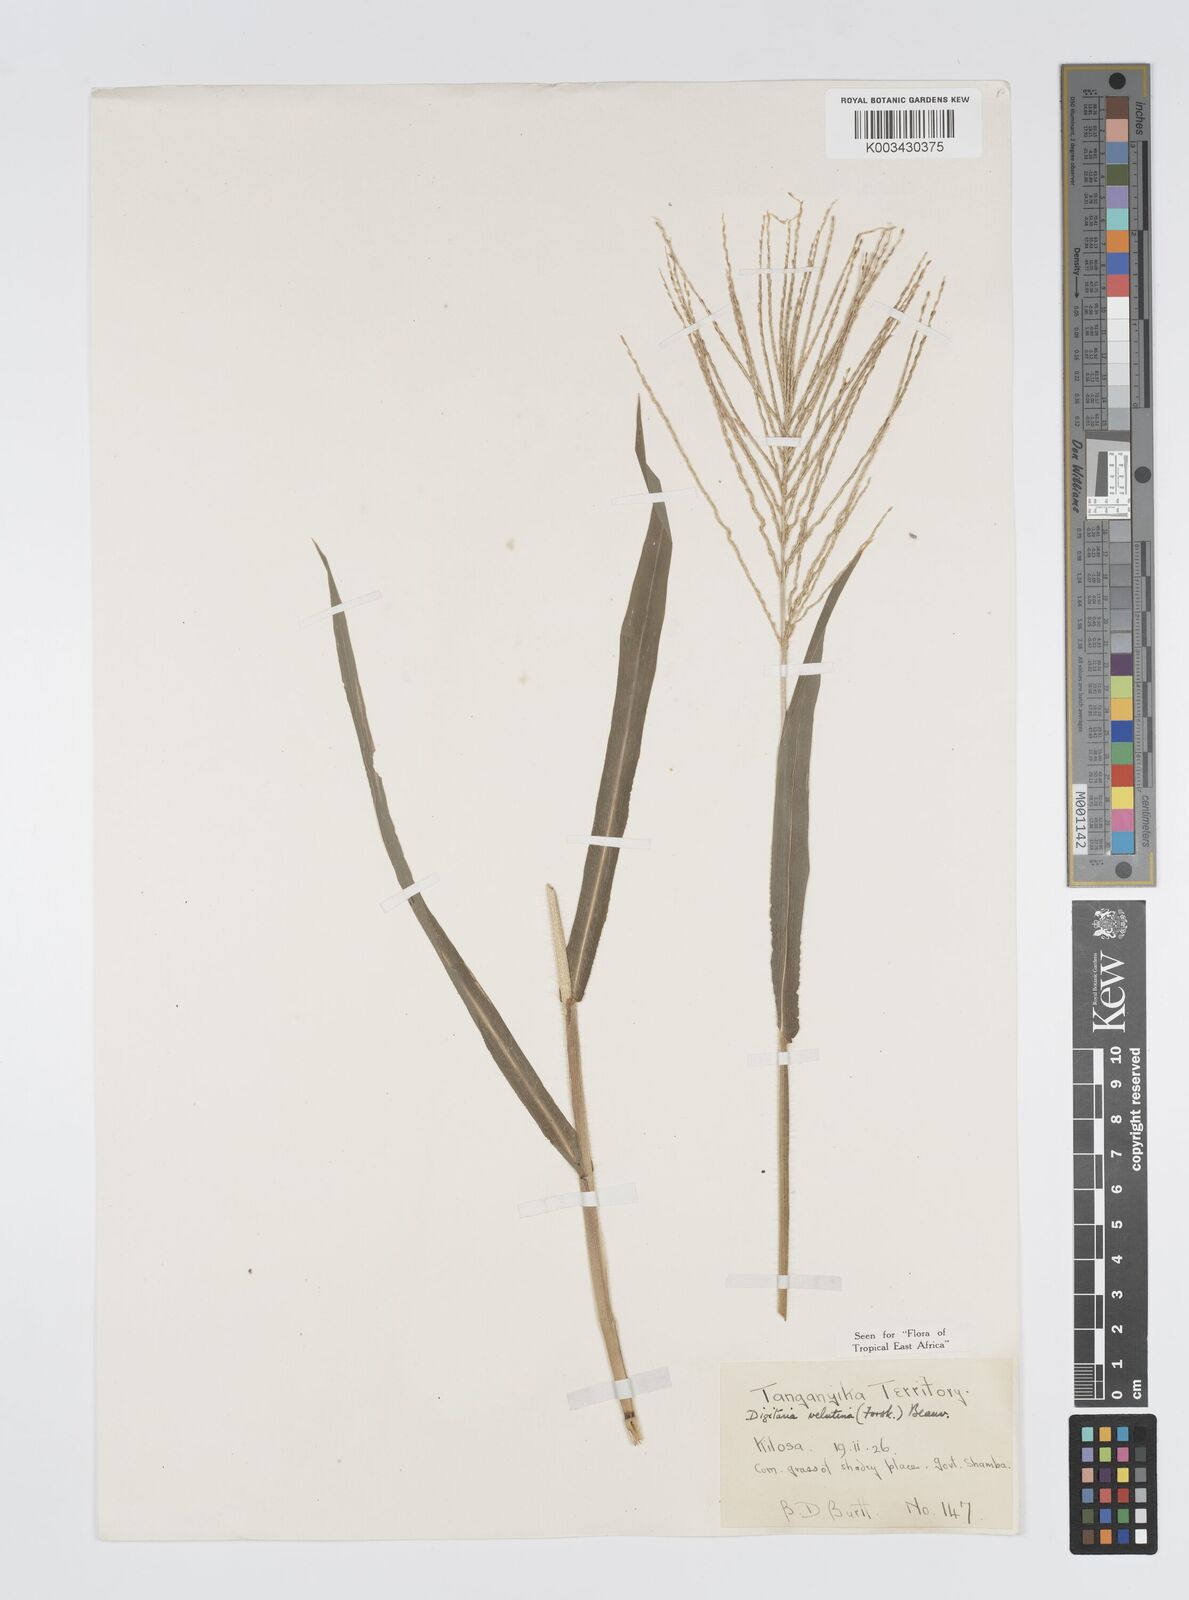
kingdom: Plantae
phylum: Tracheophyta
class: Liliopsida
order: Poales
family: Poaceae
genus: Digitaria
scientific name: Digitaria velutina
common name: Long-plume finger grass
